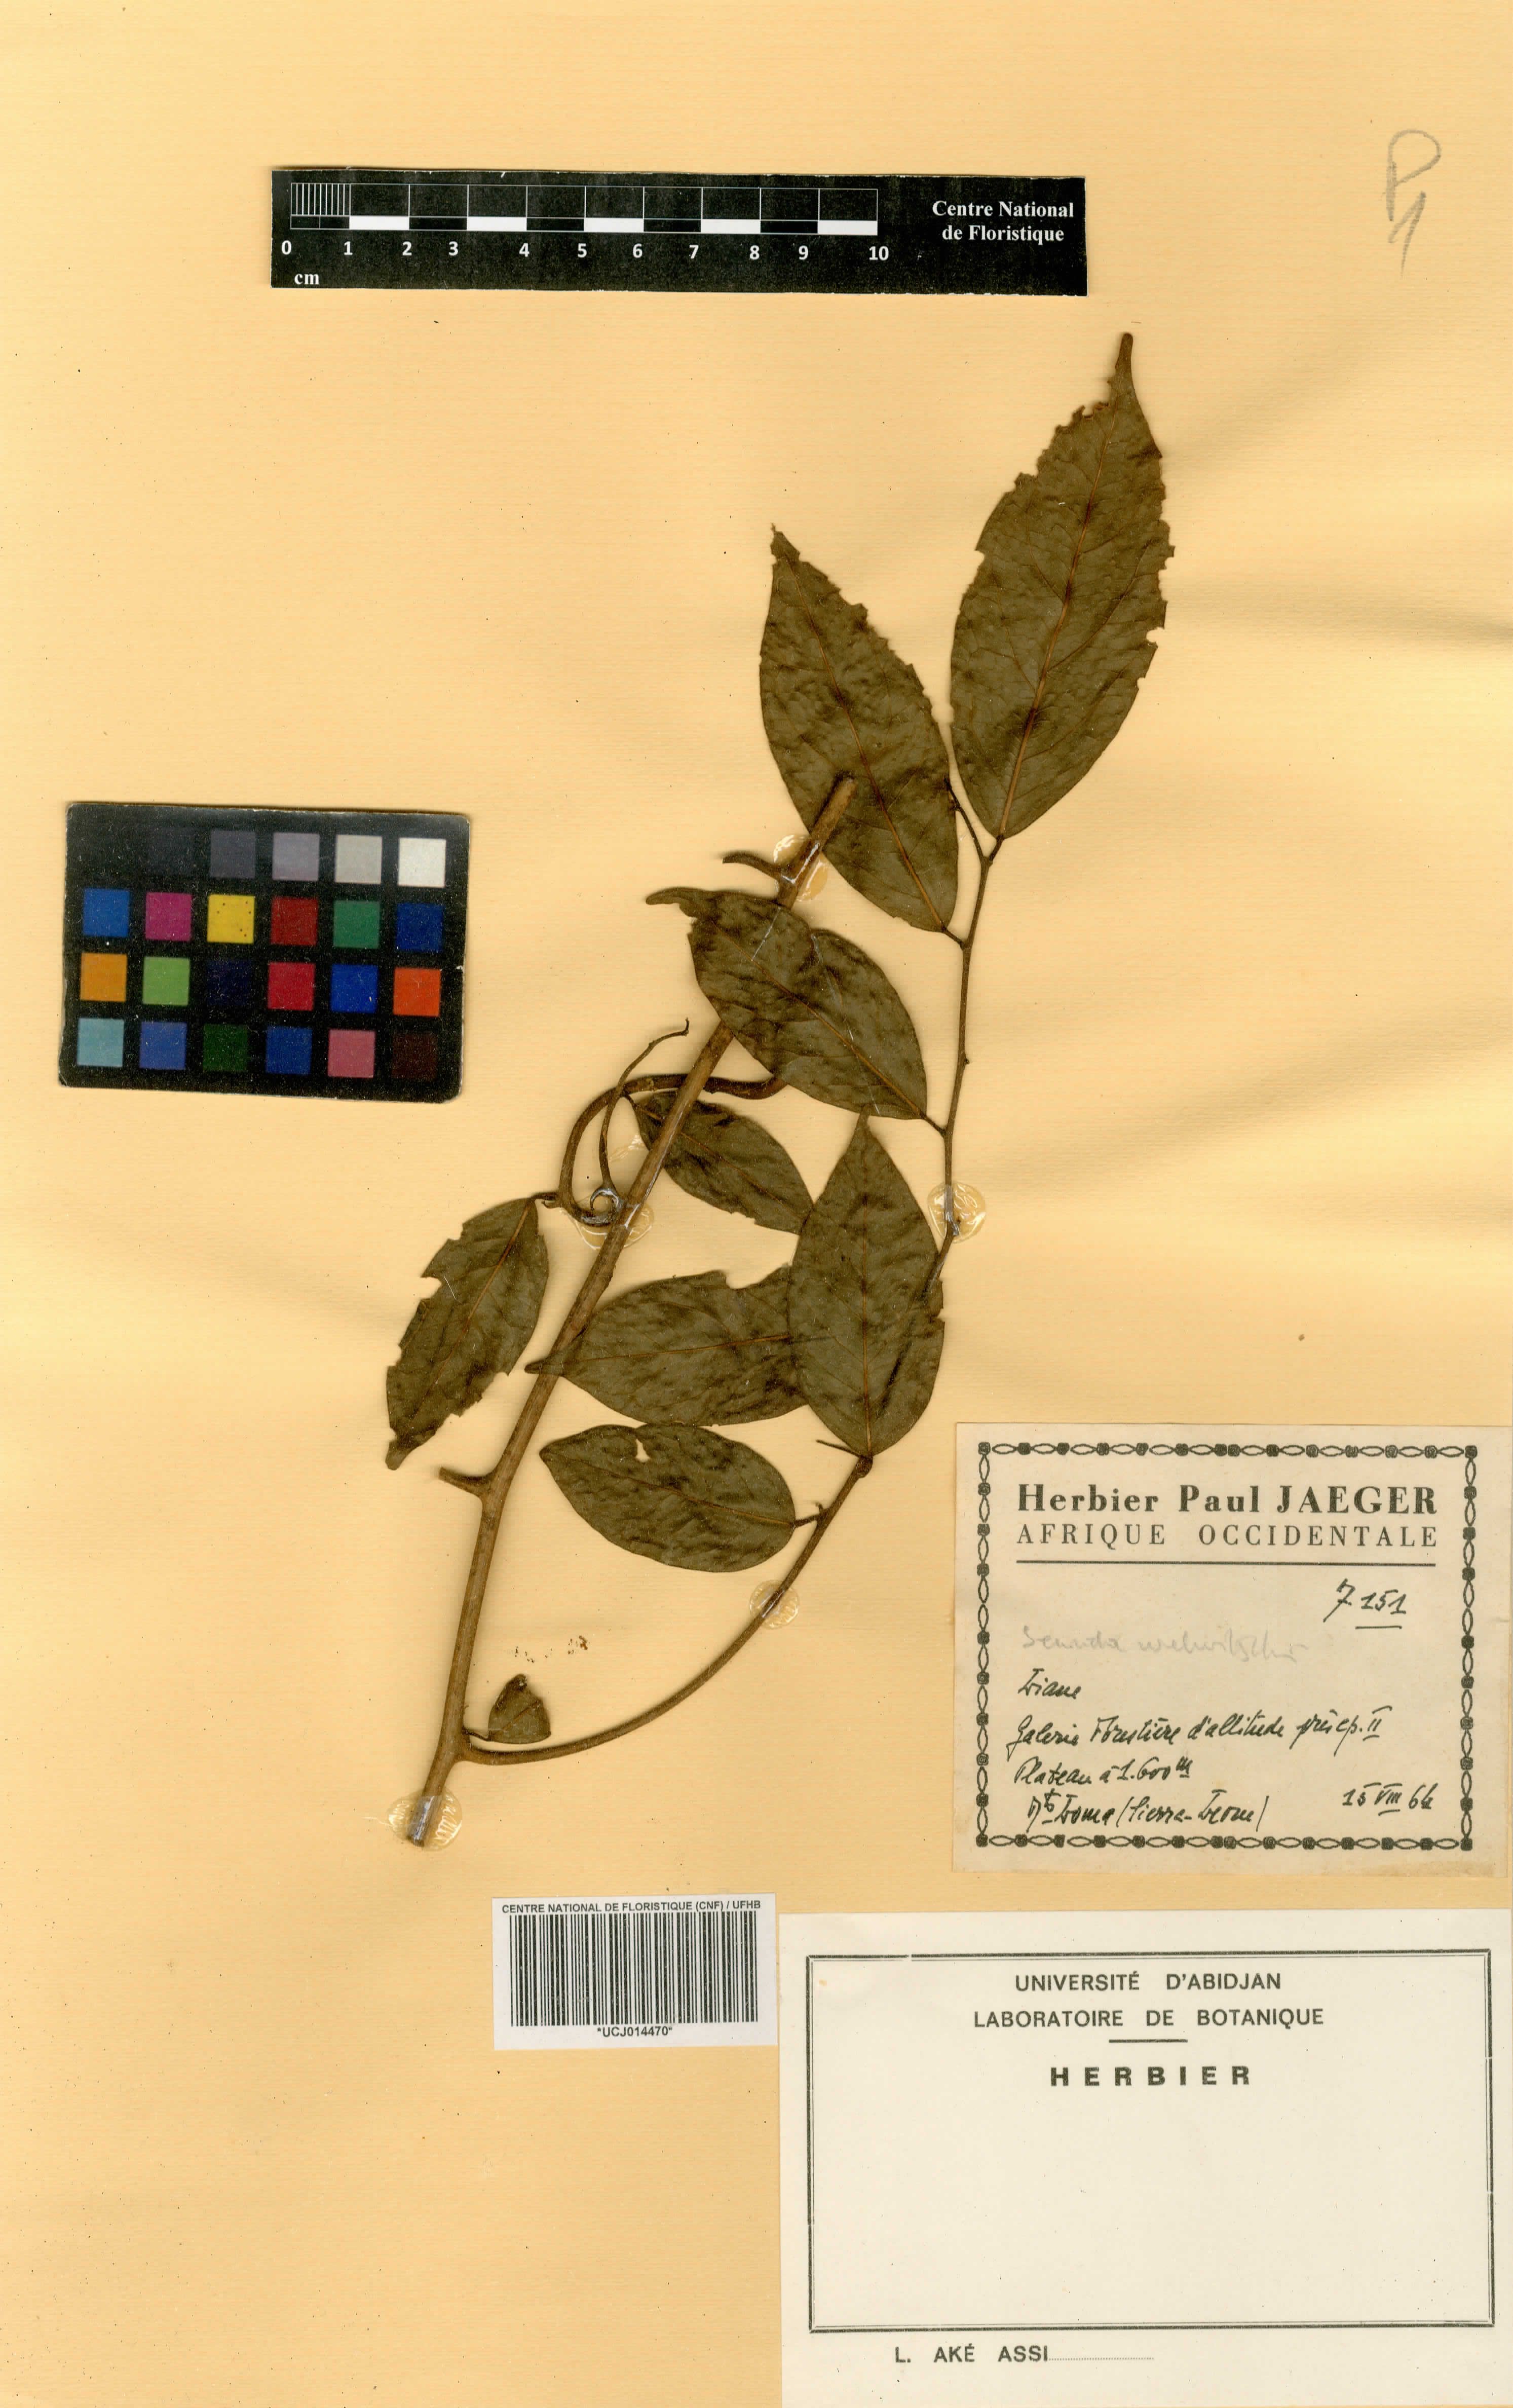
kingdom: Plantae
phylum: Tracheophyta
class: Magnoliopsida
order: Fabales
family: Polygalaceae
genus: Securidaca
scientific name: Securidaca welwitschii
